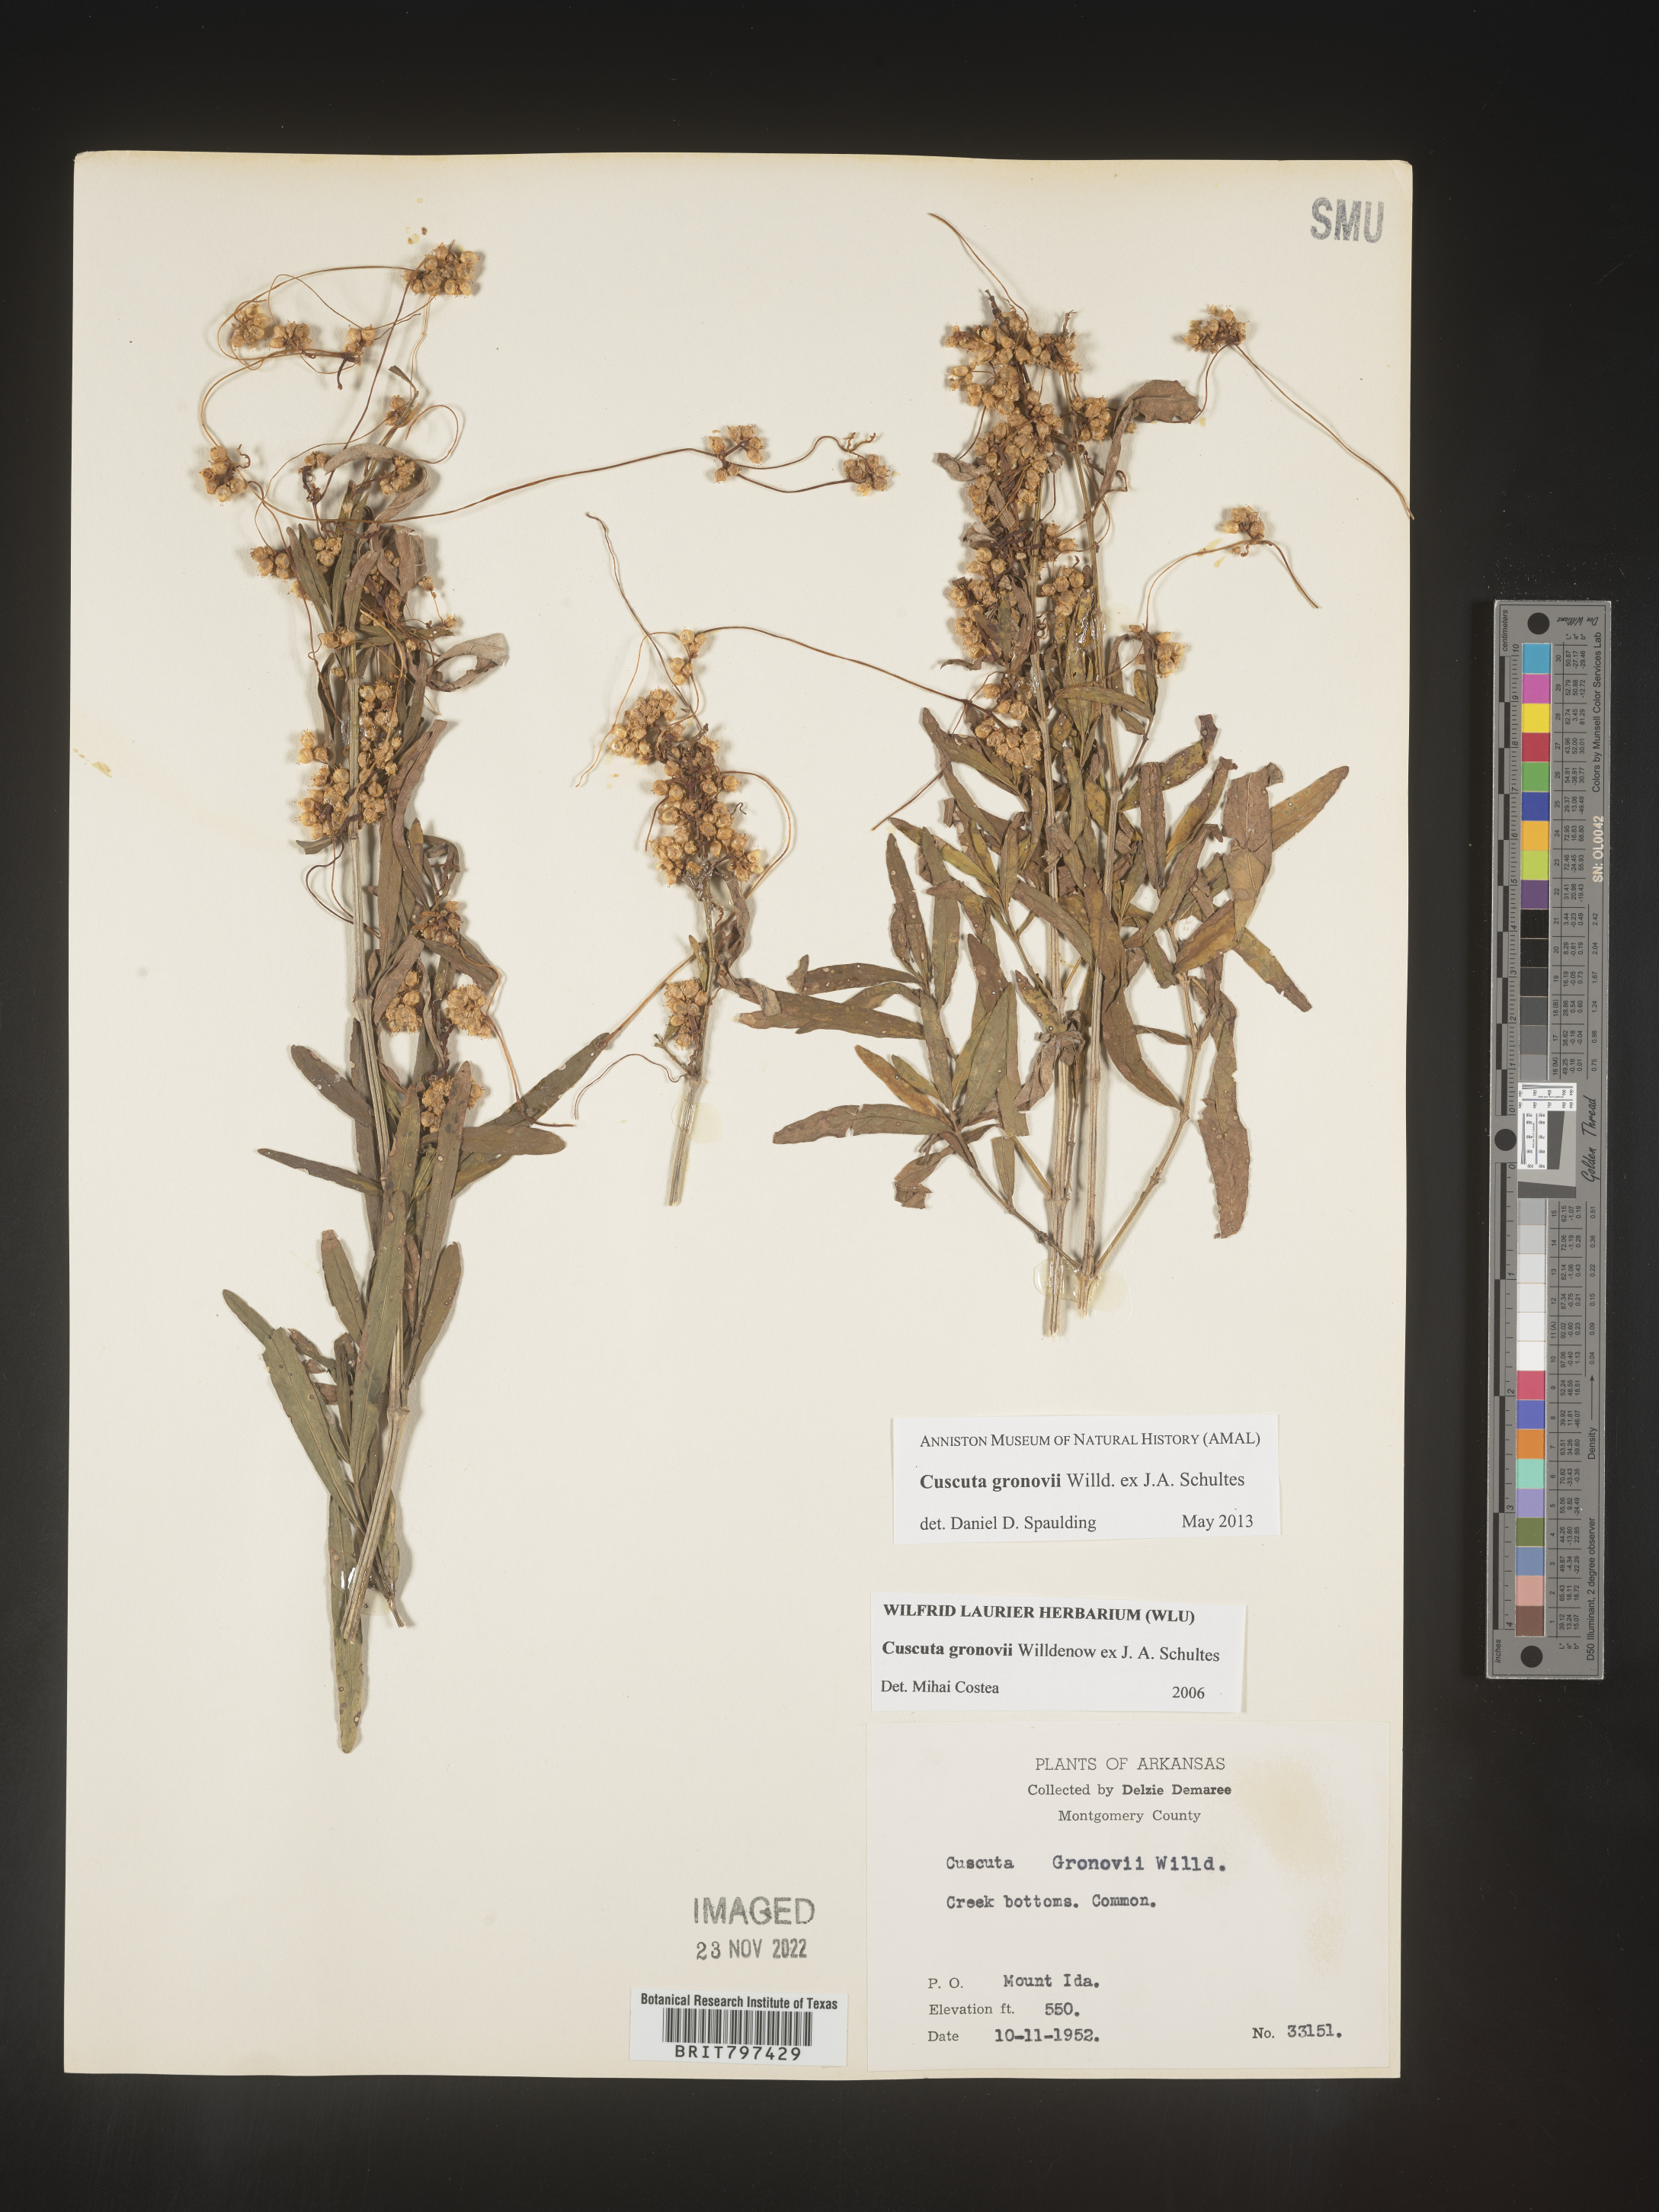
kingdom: Plantae
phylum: Tracheophyta
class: Magnoliopsida
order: Solanales
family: Convolvulaceae
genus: Cuscuta
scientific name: Cuscuta gronovii
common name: Common dodder
